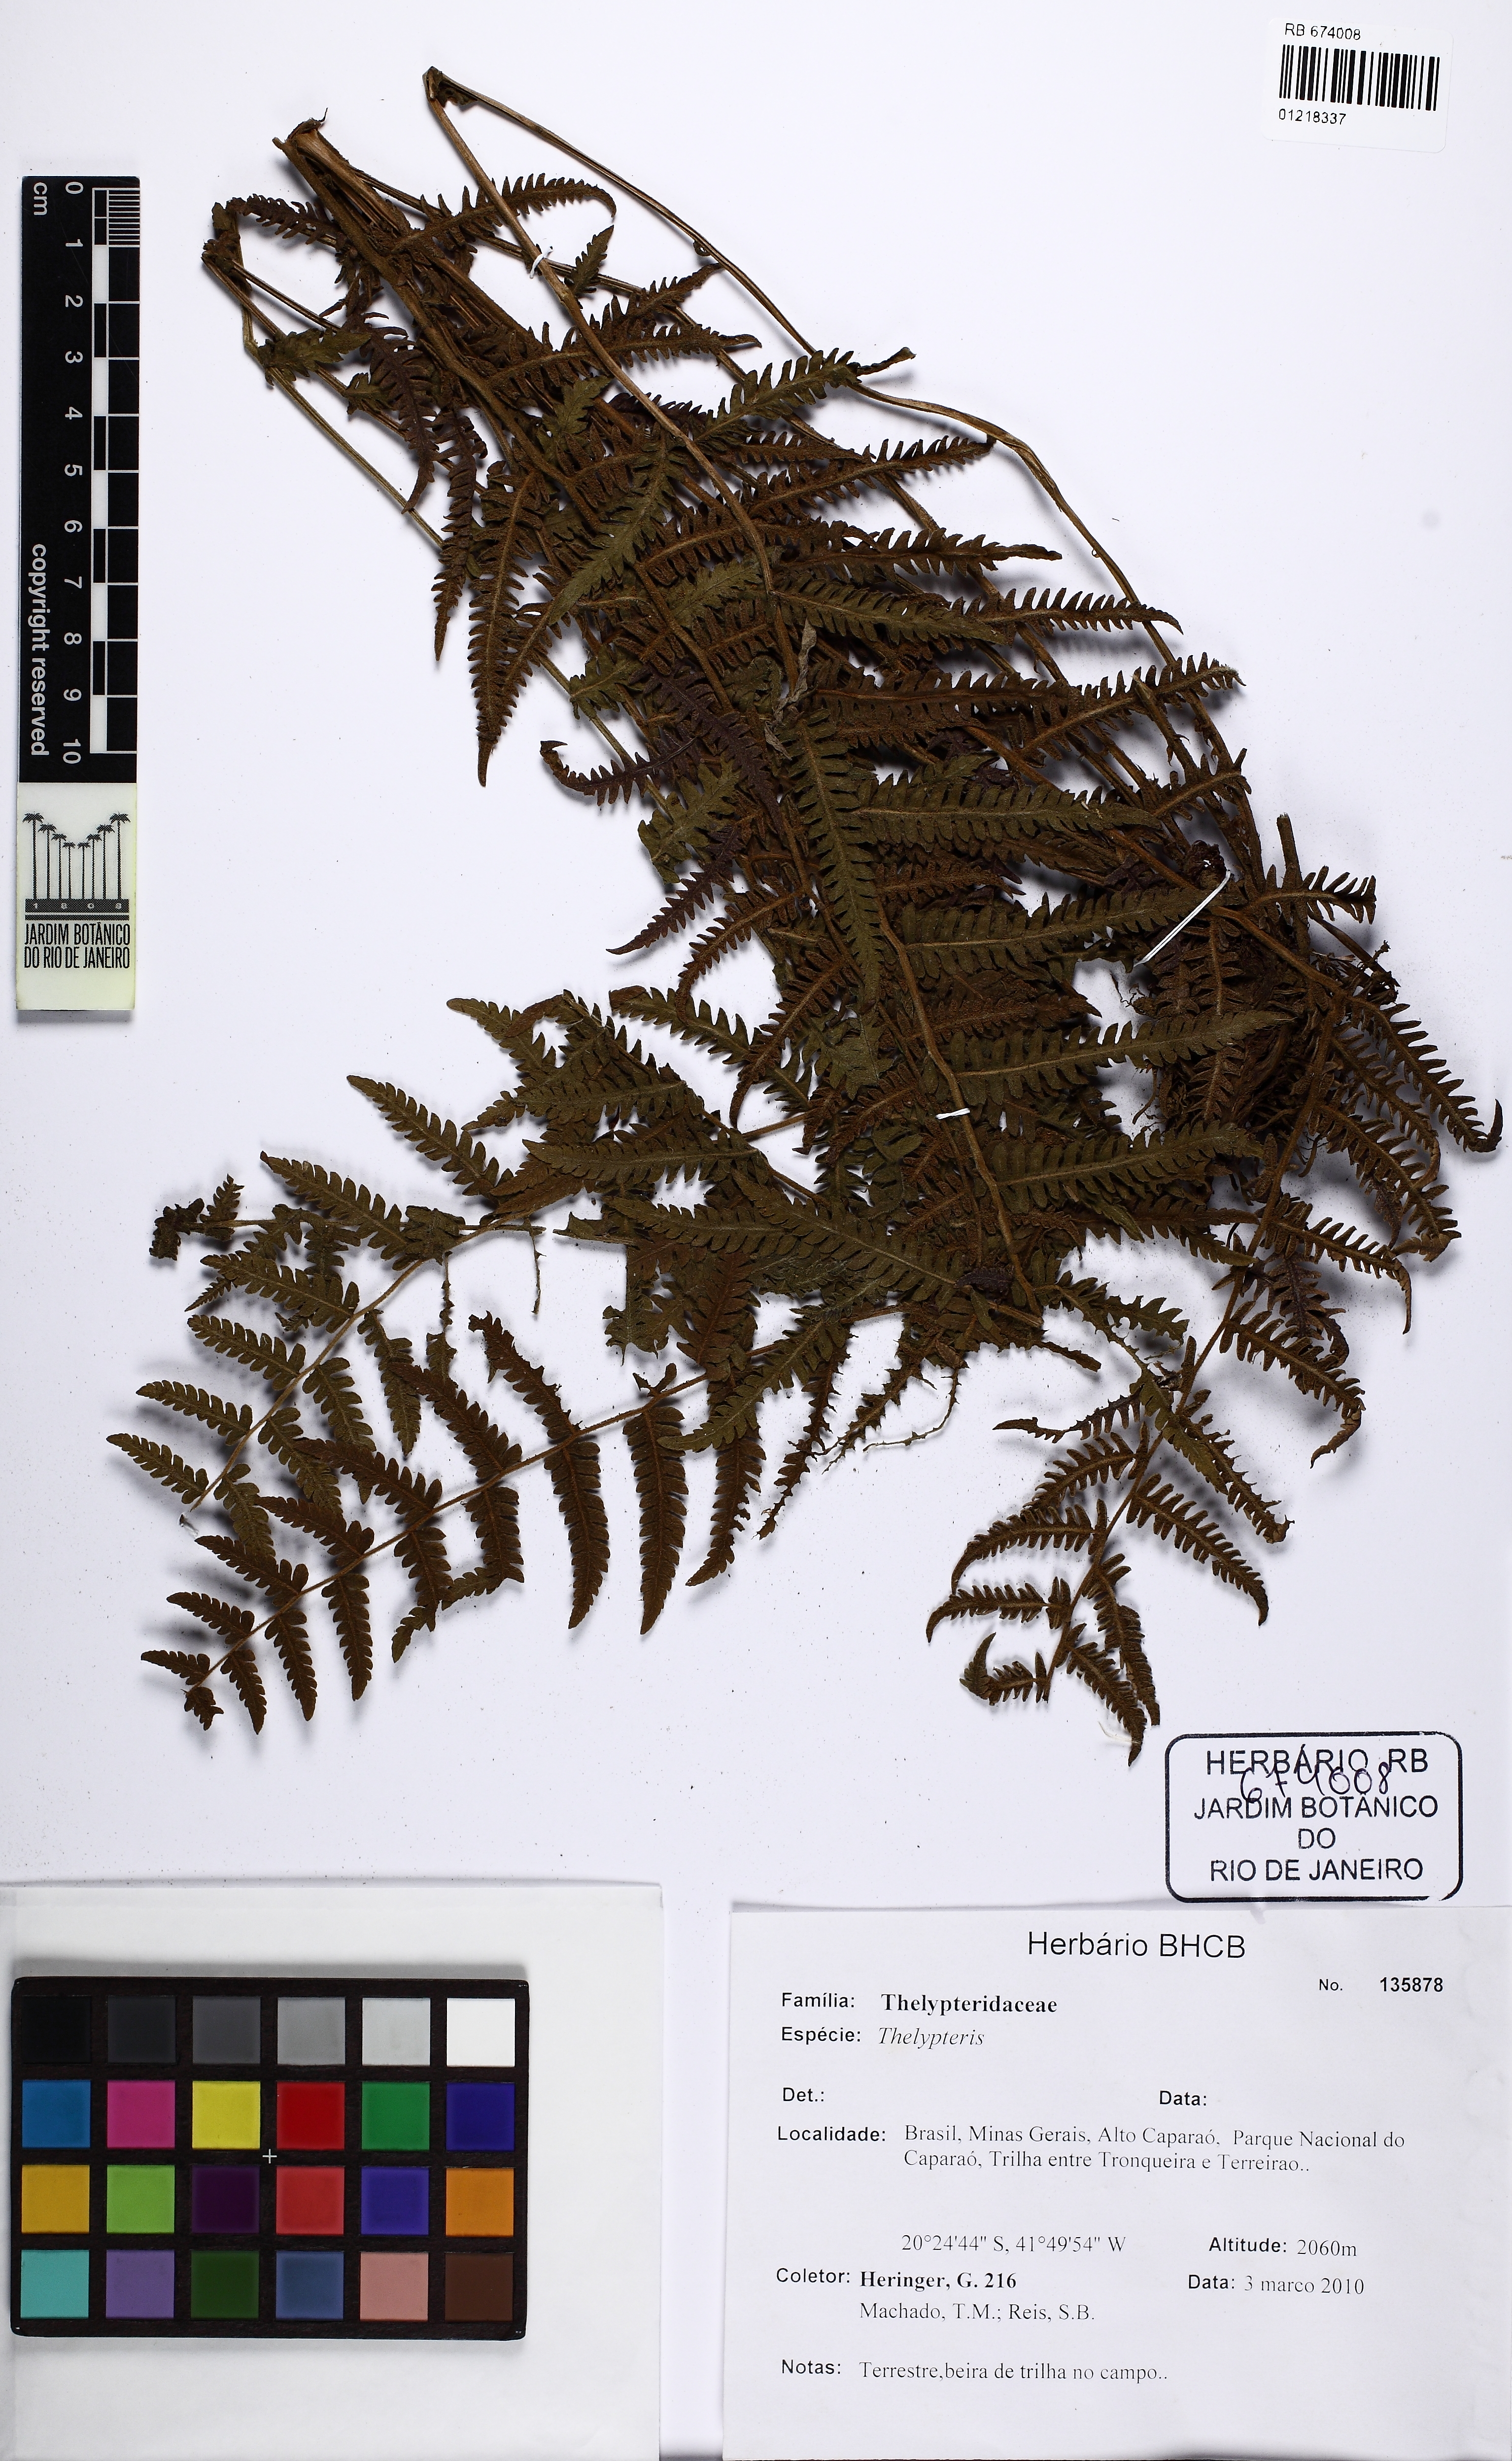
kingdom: Plantae
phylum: Tracheophyta
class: Polypodiopsida
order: Polypodiales
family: Thelypteridaceae
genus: Amauropelta
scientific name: Amauropelta raddii
